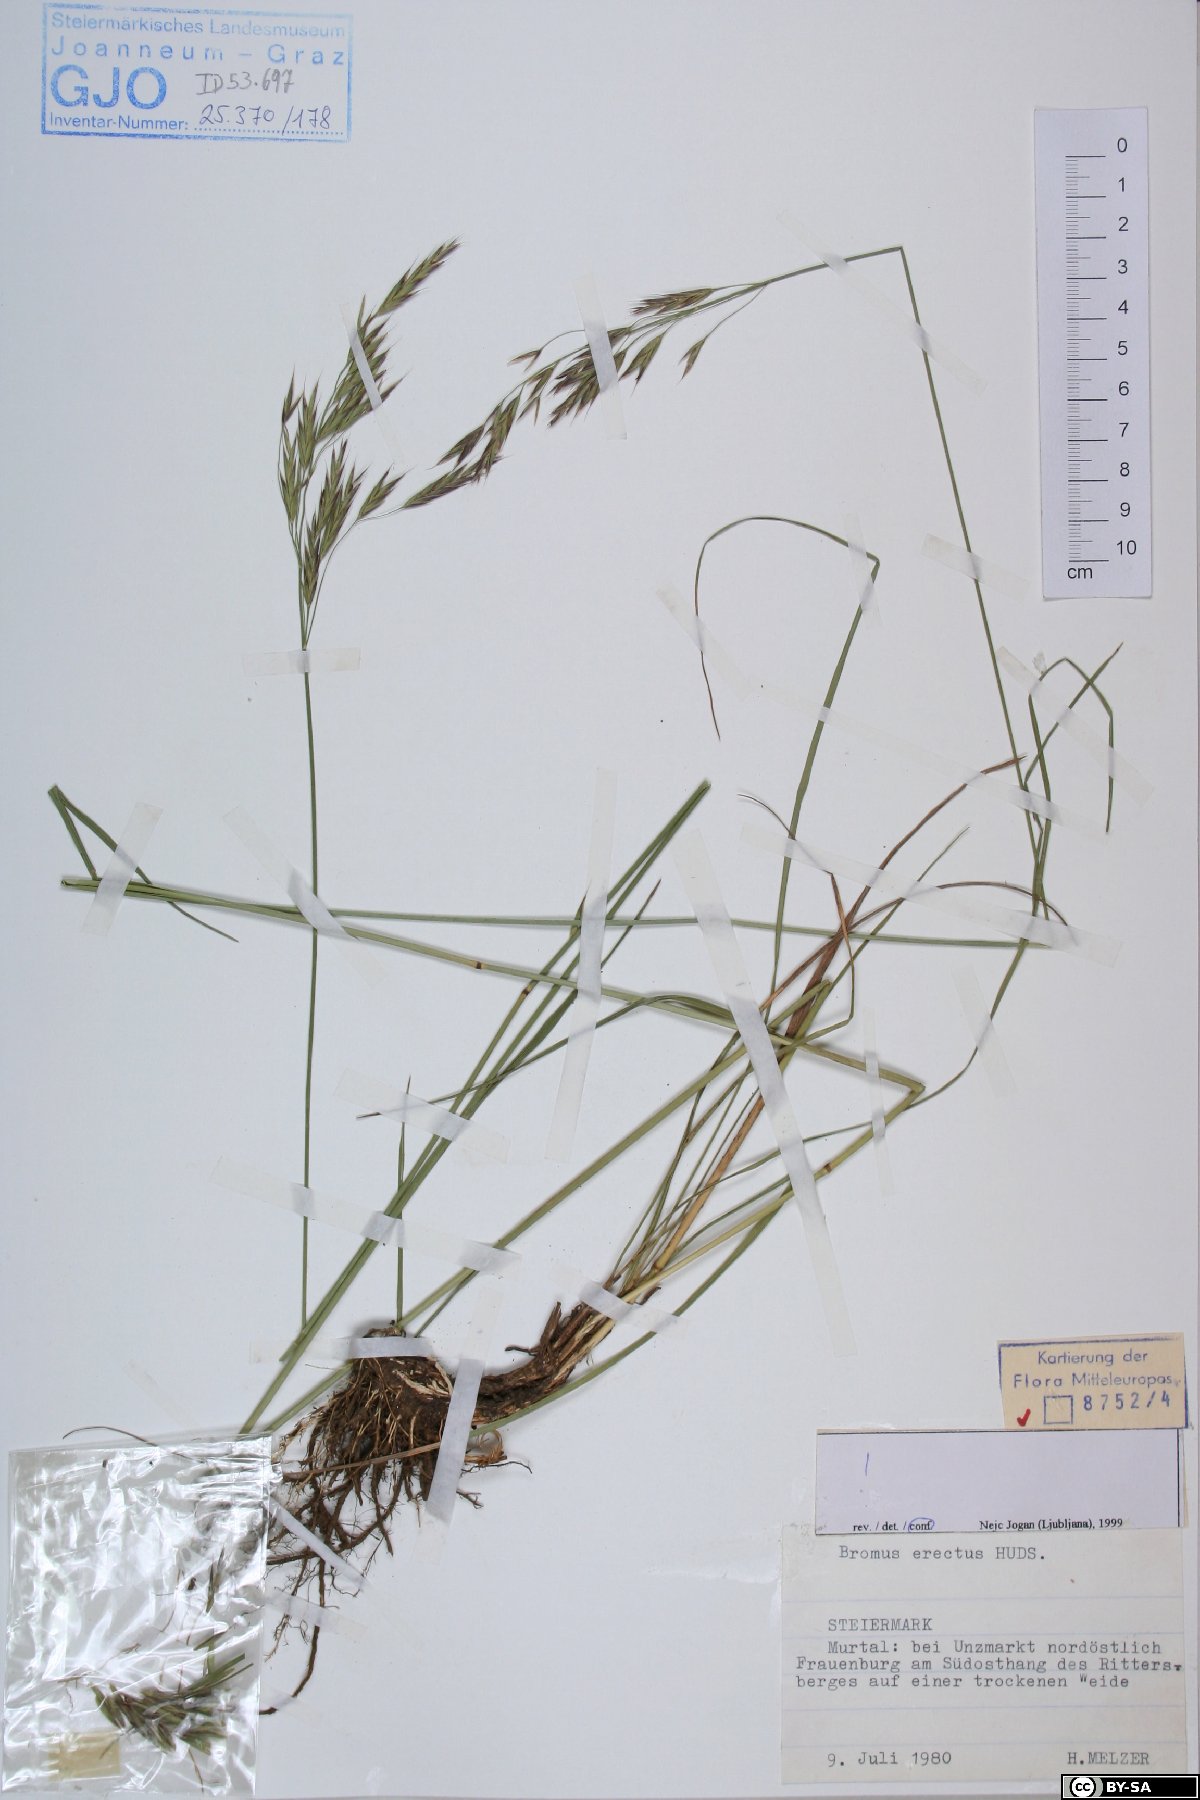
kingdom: Plantae
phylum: Tracheophyta
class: Liliopsida
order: Poales
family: Poaceae
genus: Bromus
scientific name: Bromus erectus
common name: Erect brome
